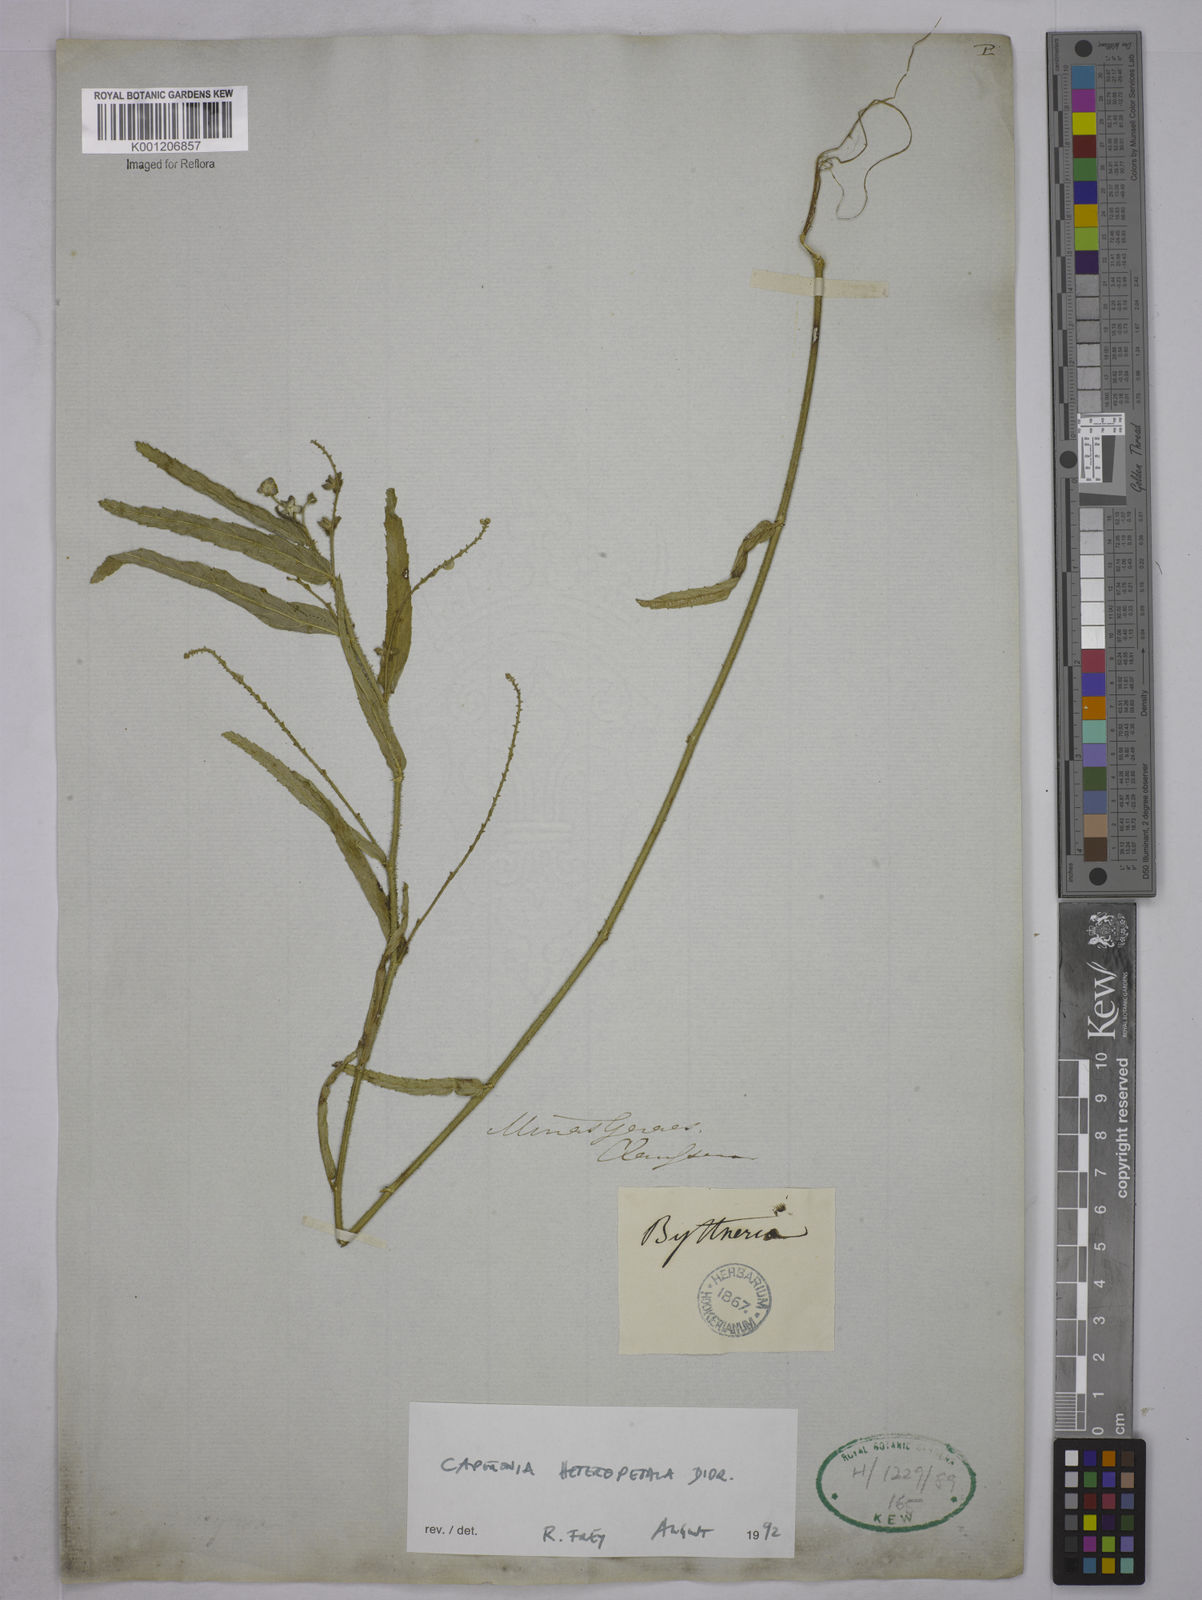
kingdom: Plantae
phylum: Tracheophyta
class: Magnoliopsida
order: Malpighiales
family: Euphorbiaceae
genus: Caperonia
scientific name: Caperonia heteropetala
